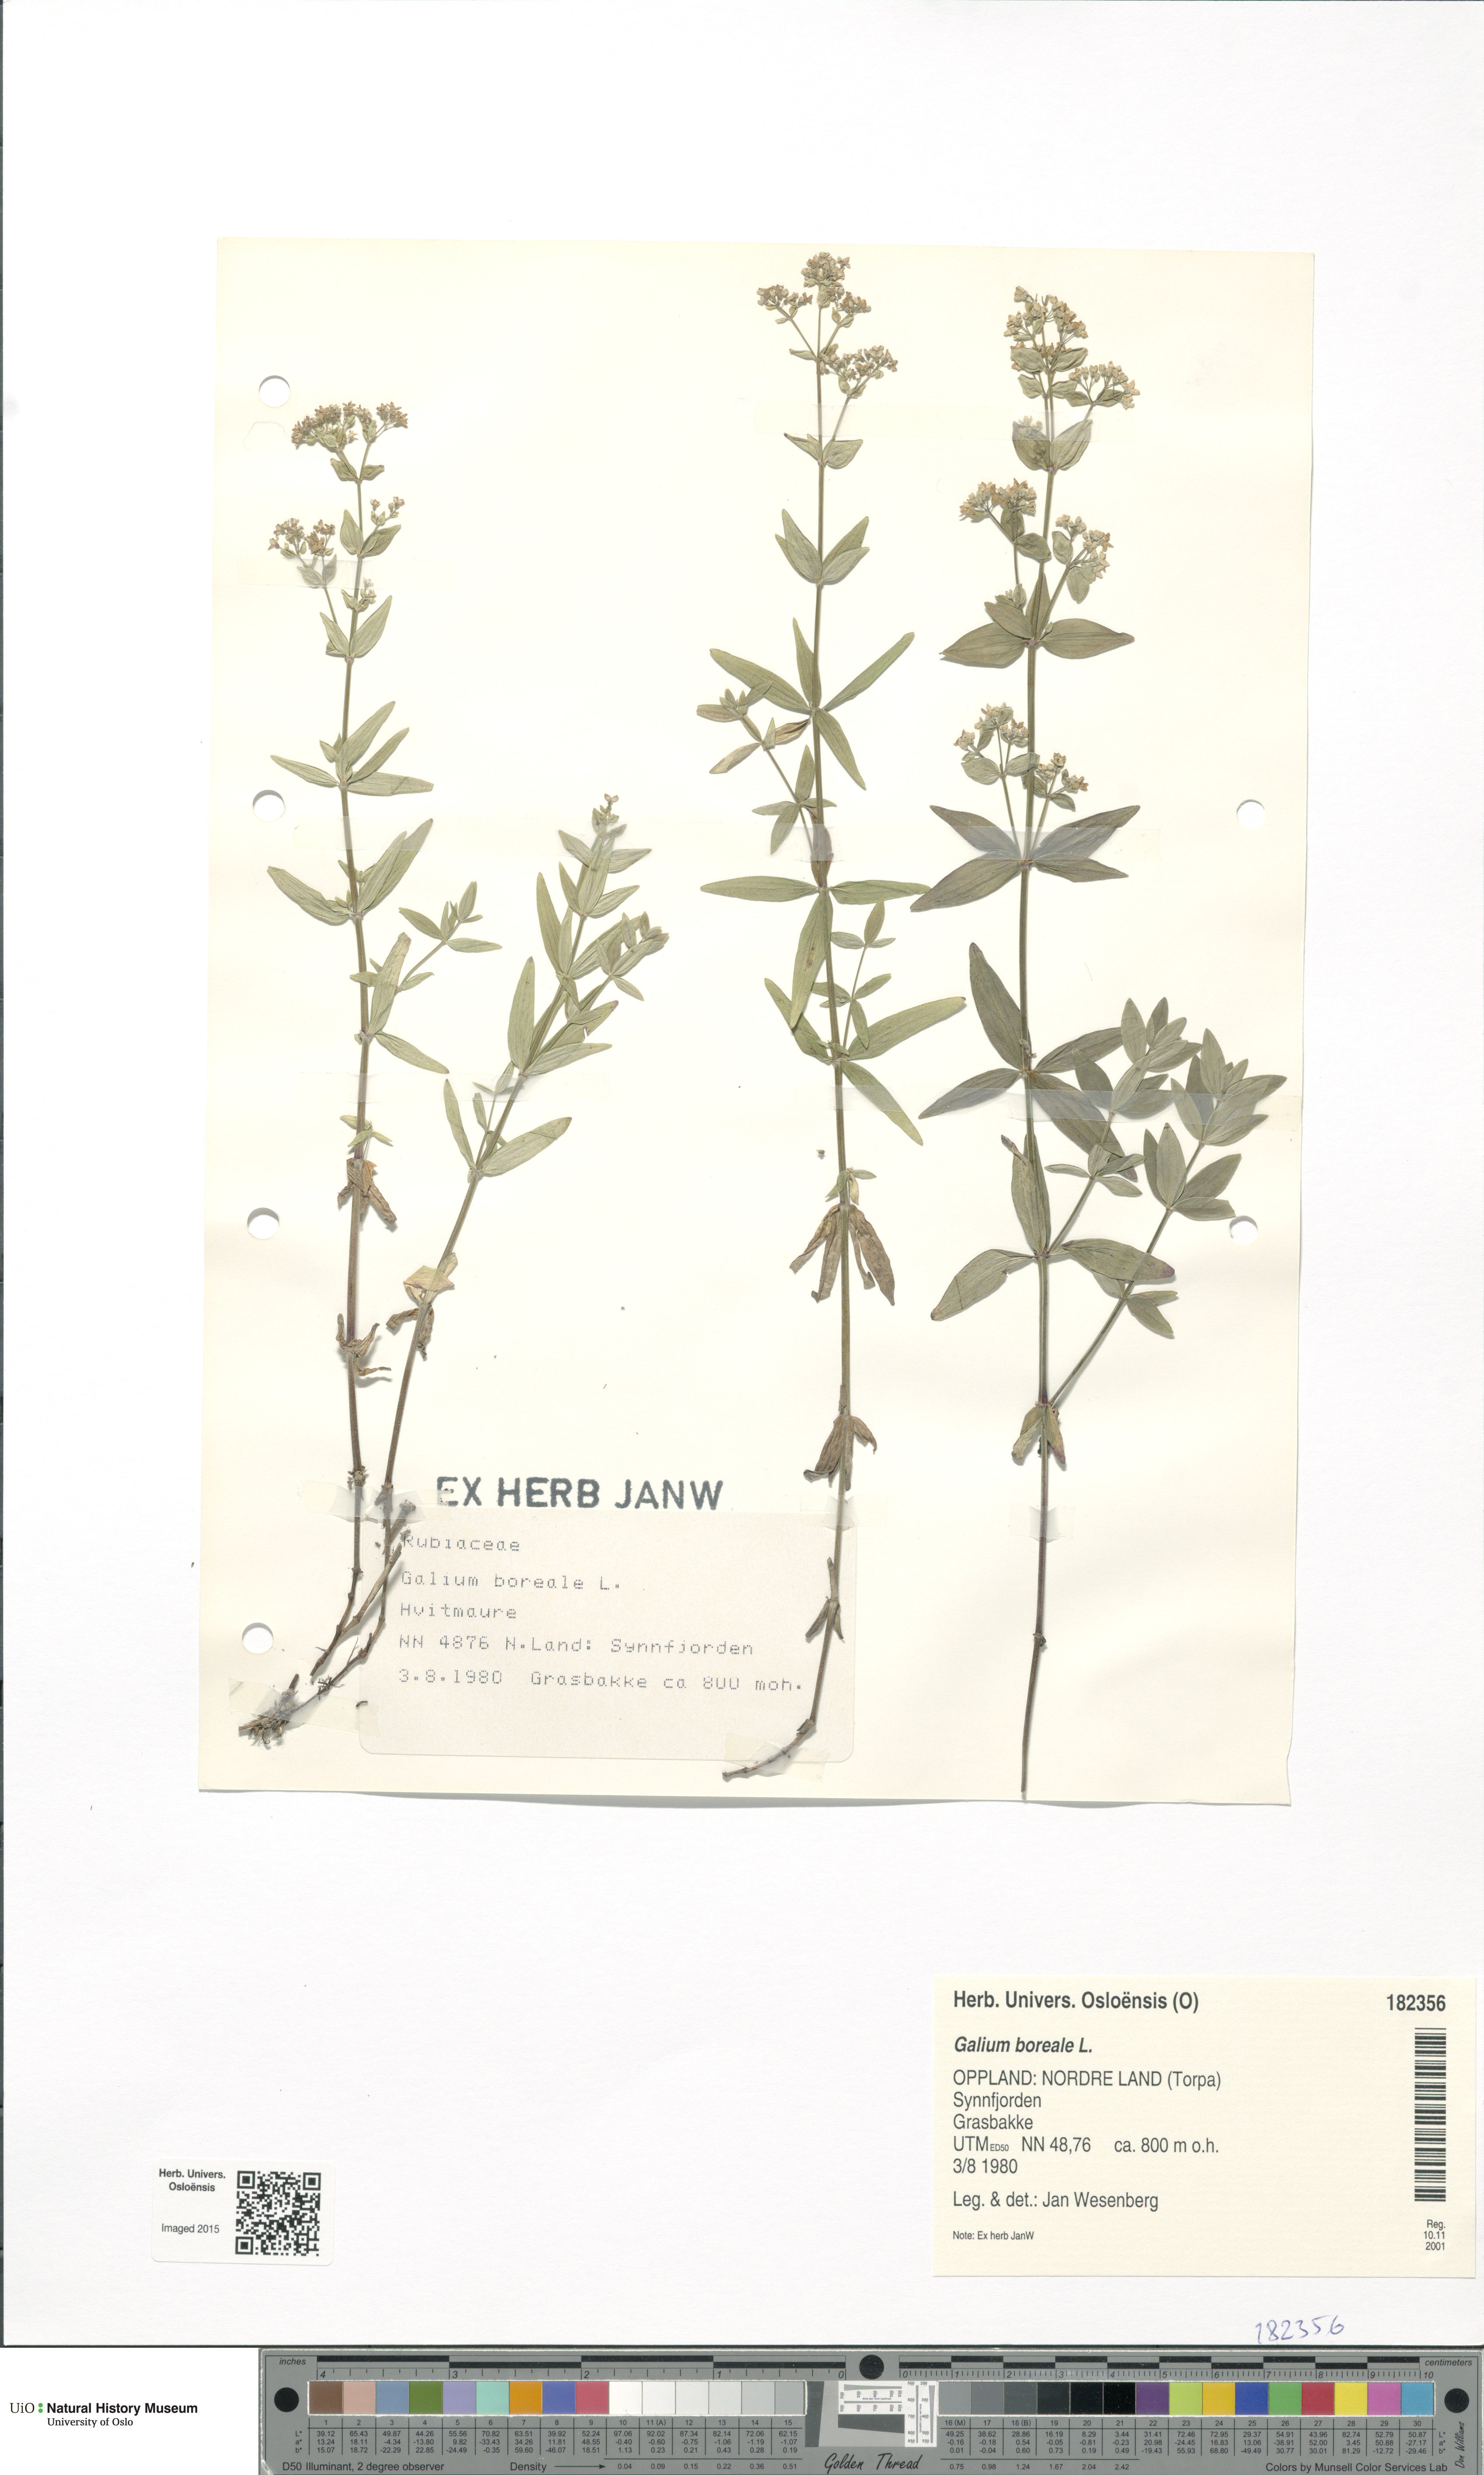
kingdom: Plantae
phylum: Tracheophyta
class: Magnoliopsida
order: Gentianales
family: Rubiaceae
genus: Galium
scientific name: Galium boreale
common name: Northern bedstraw
